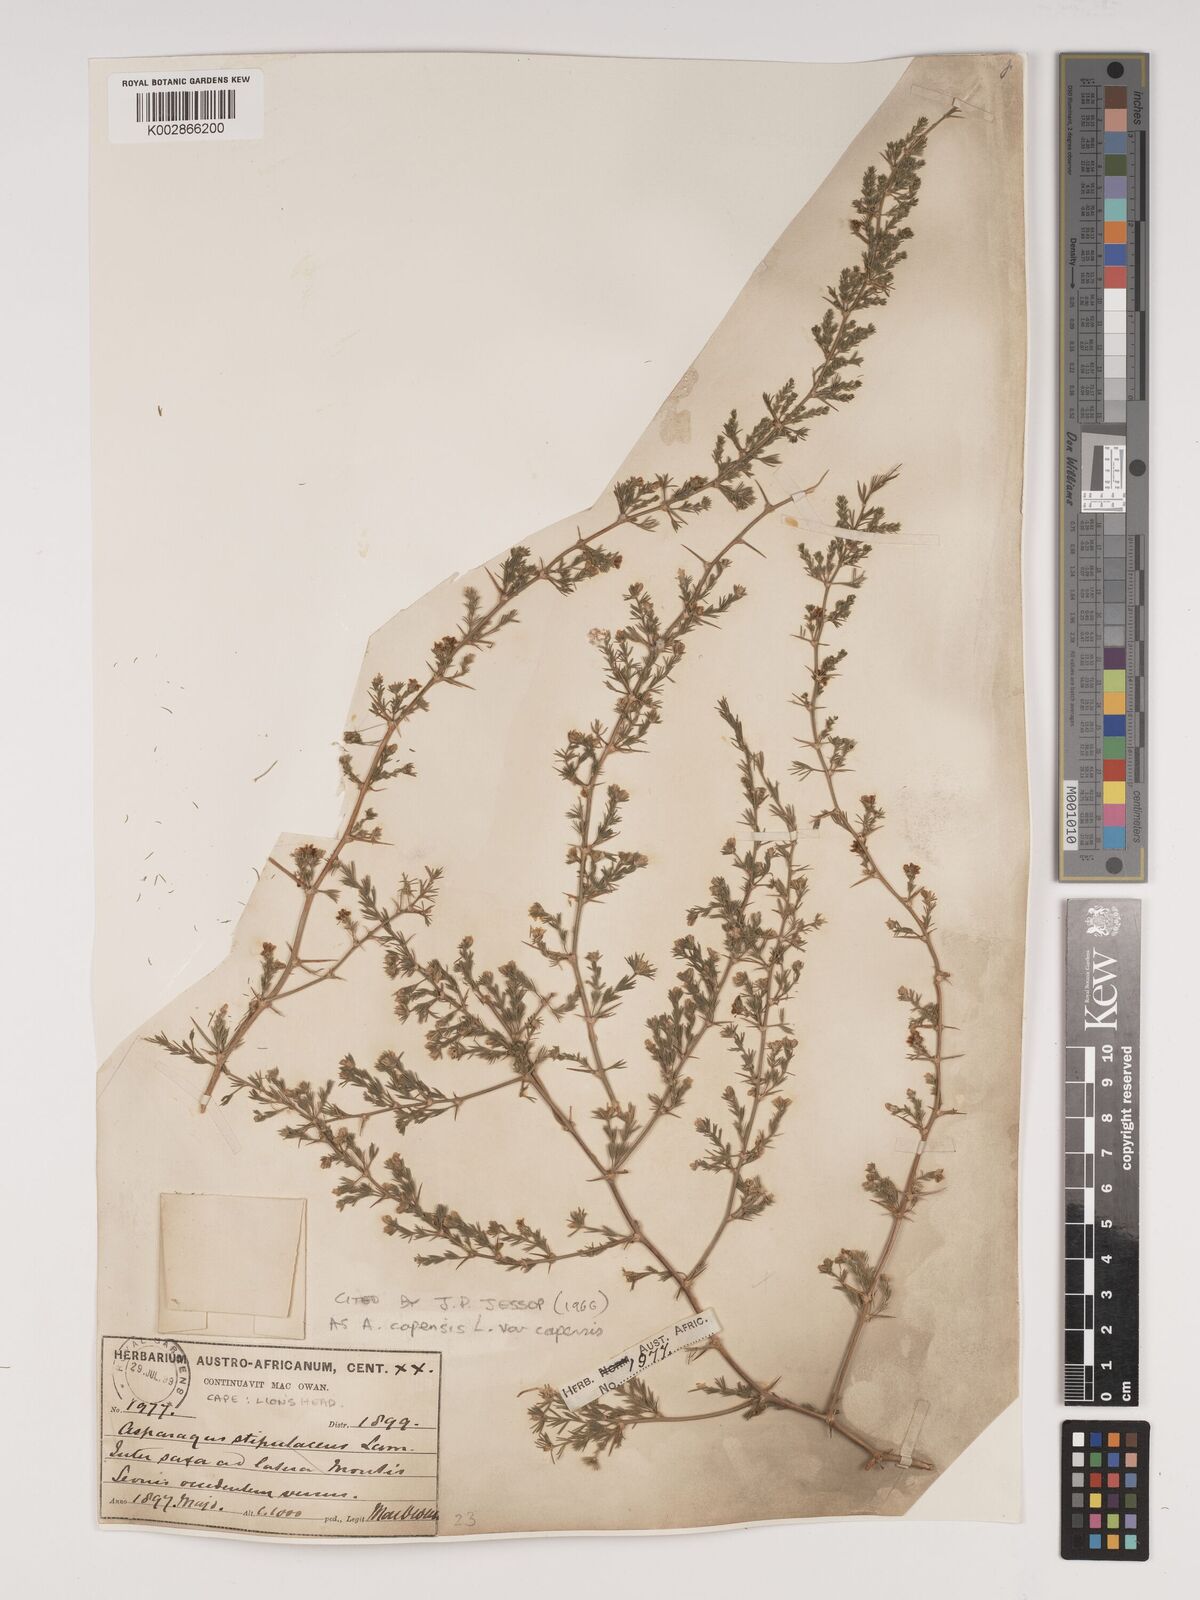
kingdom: Plantae
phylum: Tracheophyta
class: Liliopsida
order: Asparagales
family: Asparagaceae
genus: Asparagus
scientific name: Asparagus capensis
